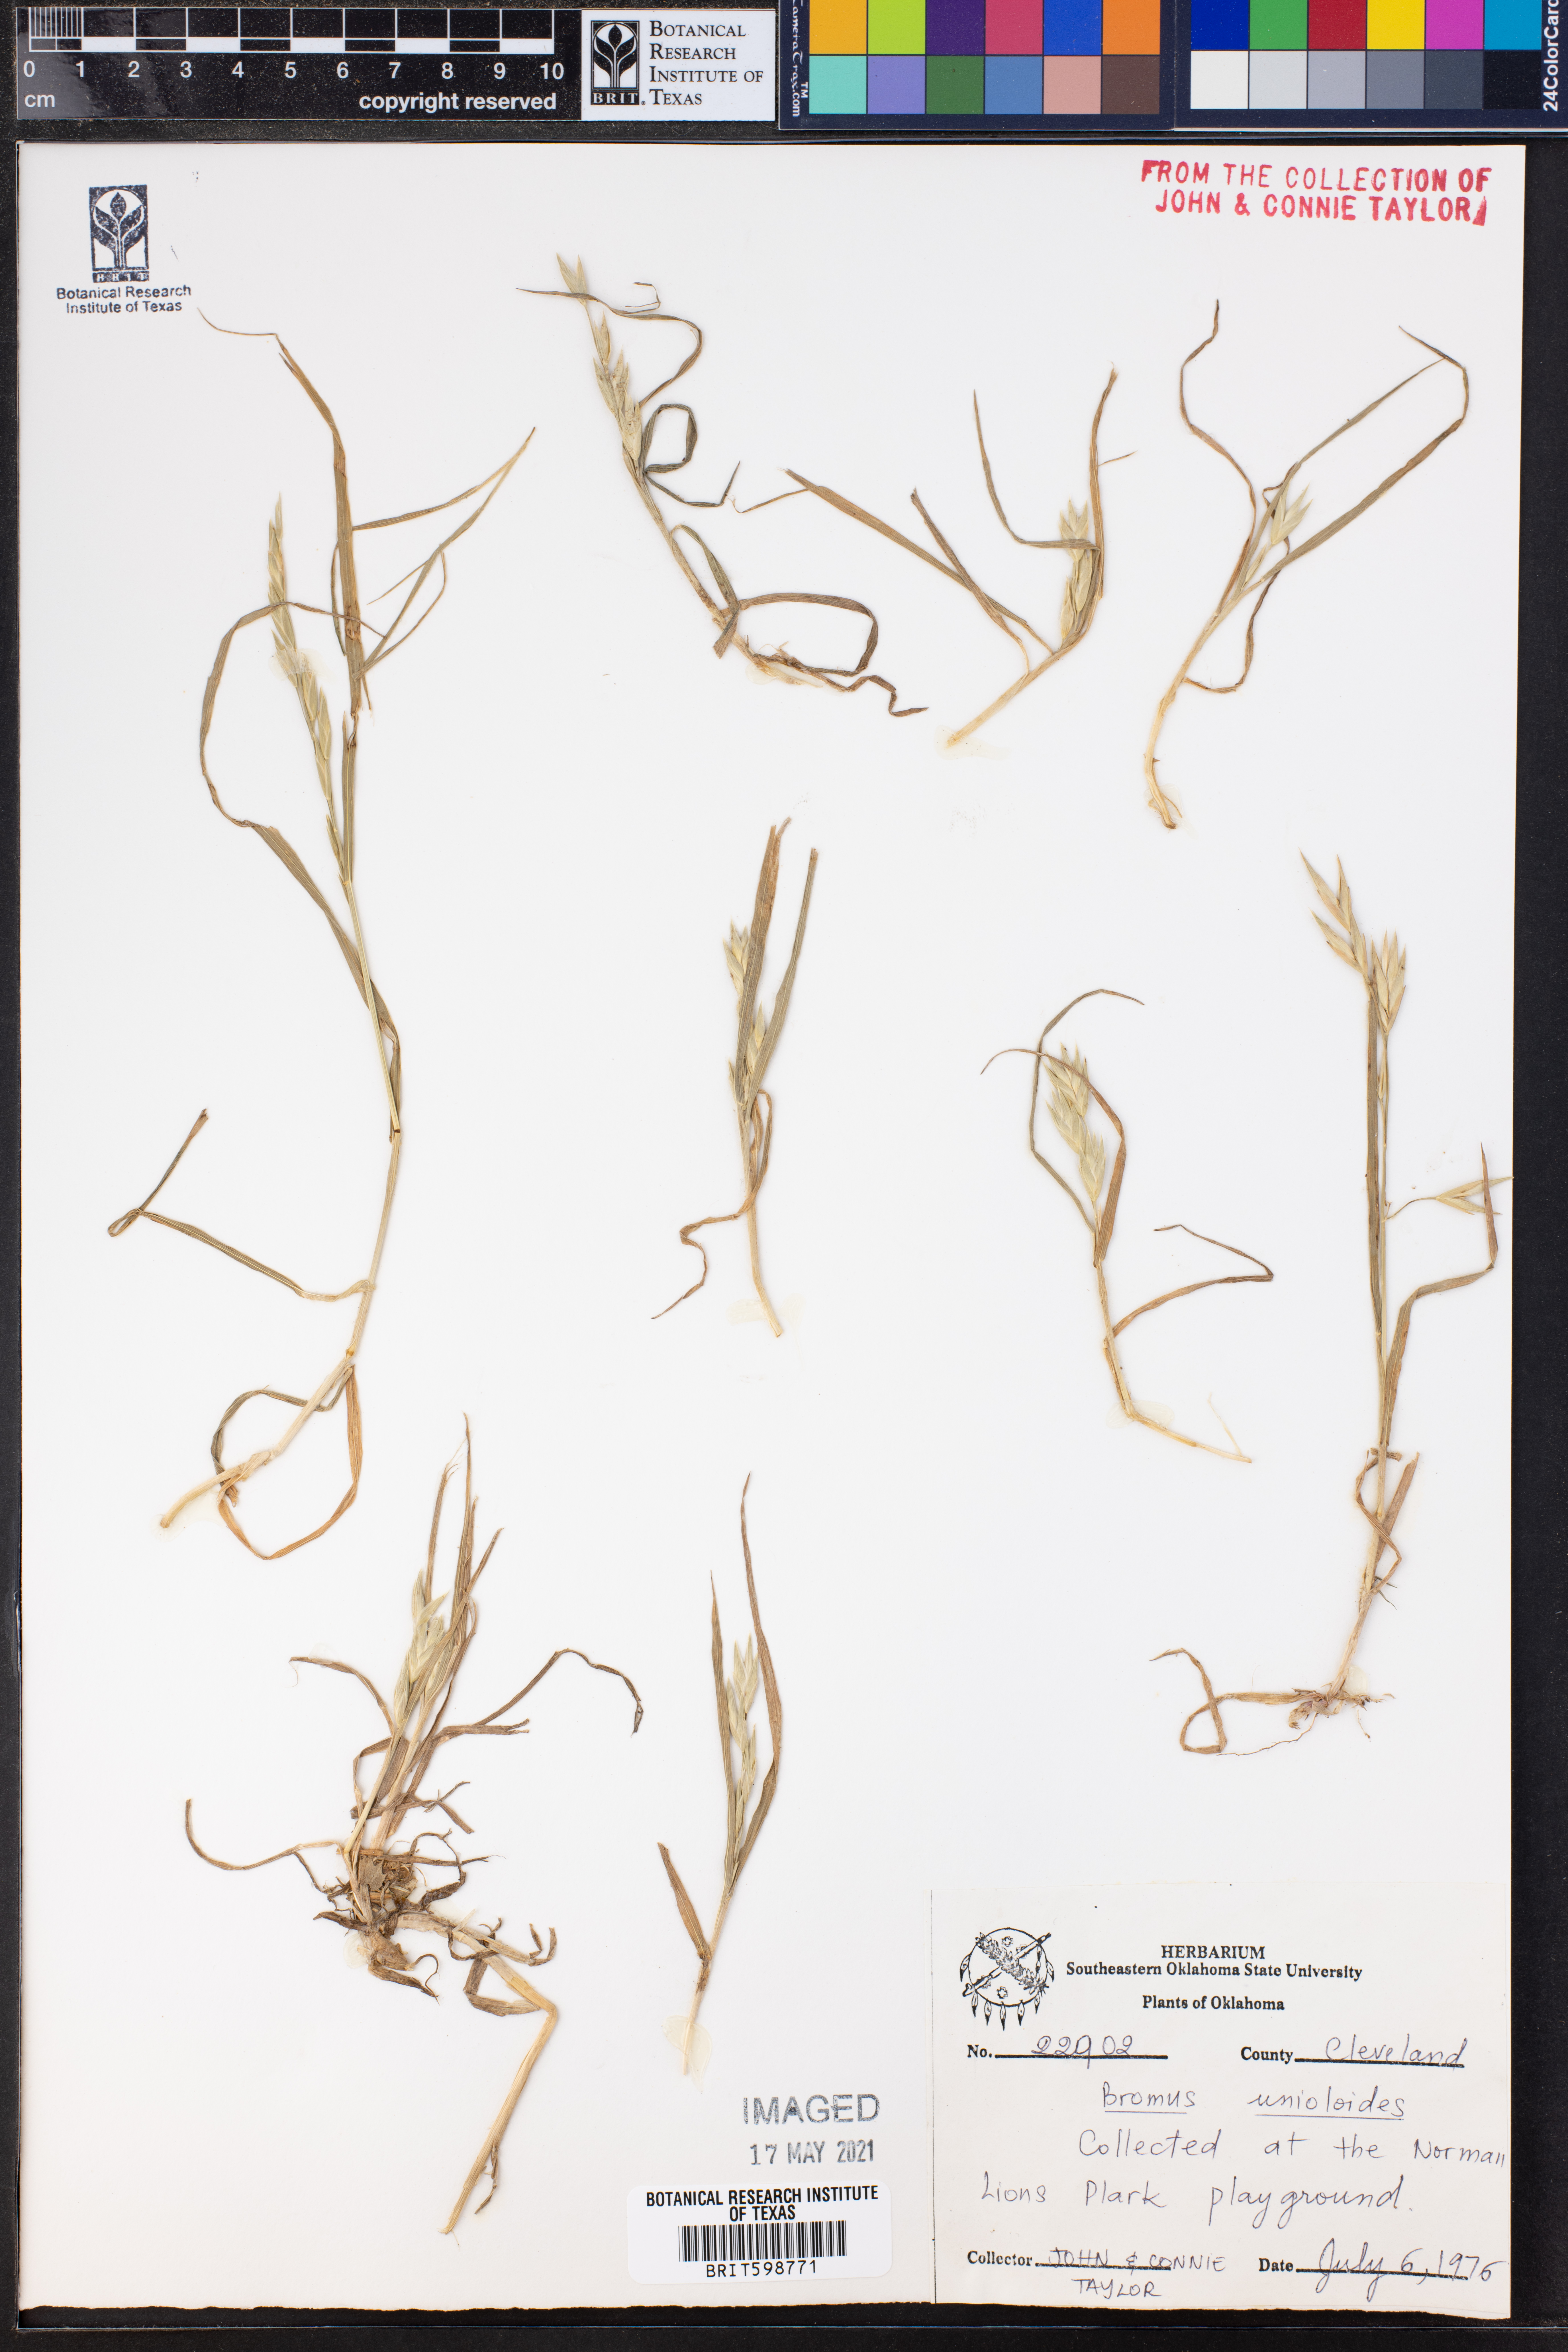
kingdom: Plantae
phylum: Tracheophyta
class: Liliopsida
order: Poales
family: Poaceae
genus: Bromus
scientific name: Bromus catharticus
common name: Rescuegrass
